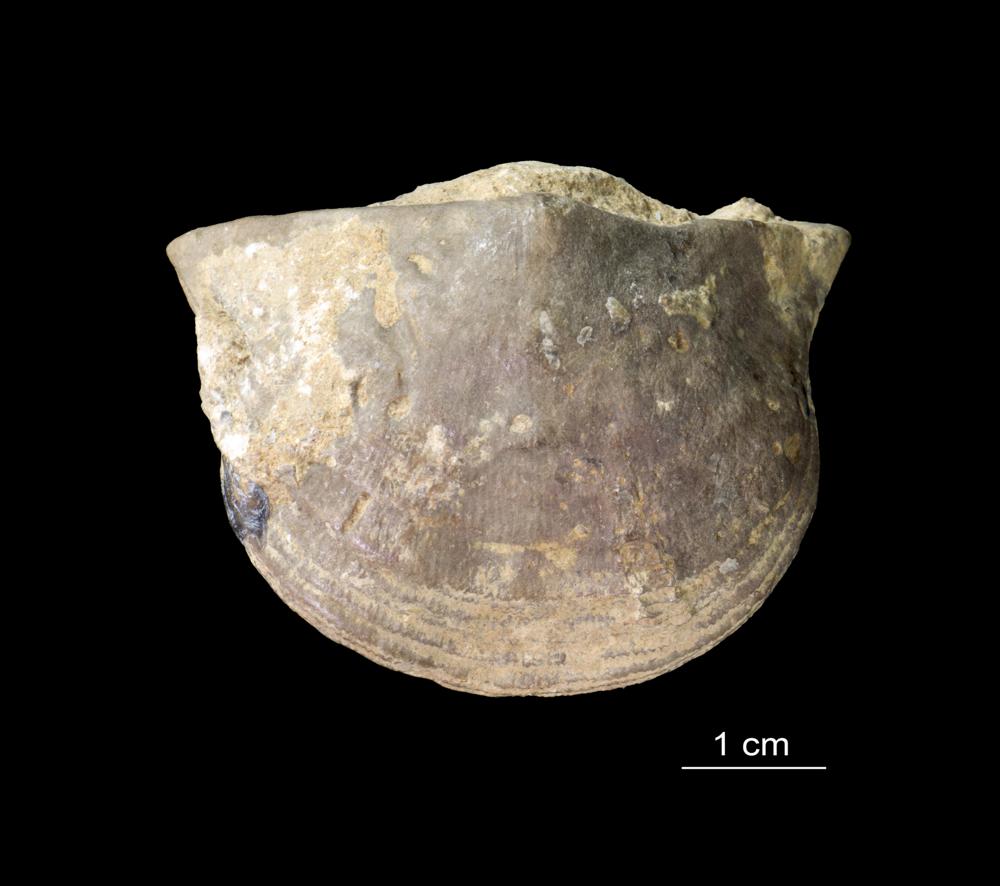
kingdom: Animalia
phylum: Brachiopoda
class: Rhynchonellata
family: Clitambonitidae
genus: Clinambon
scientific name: Clinambon anomalus
